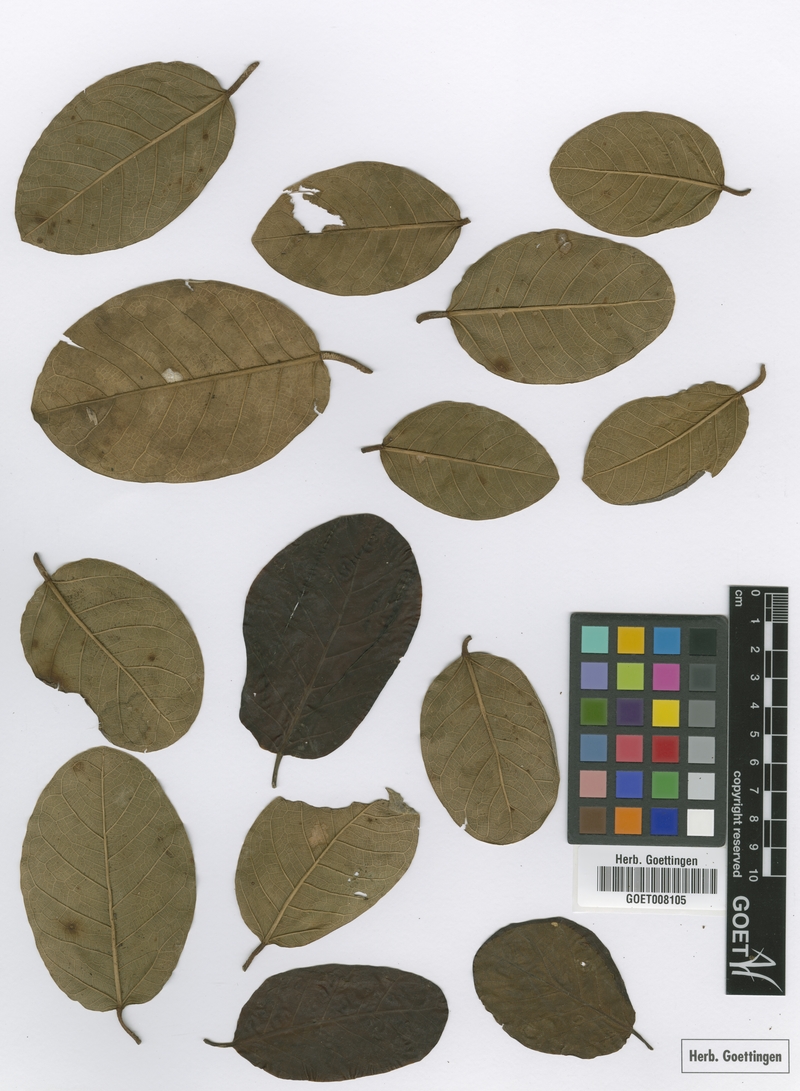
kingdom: Plantae
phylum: Tracheophyta
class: Magnoliopsida
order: Rosales
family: Moraceae
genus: Ficus
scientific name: Ficus trigonata
